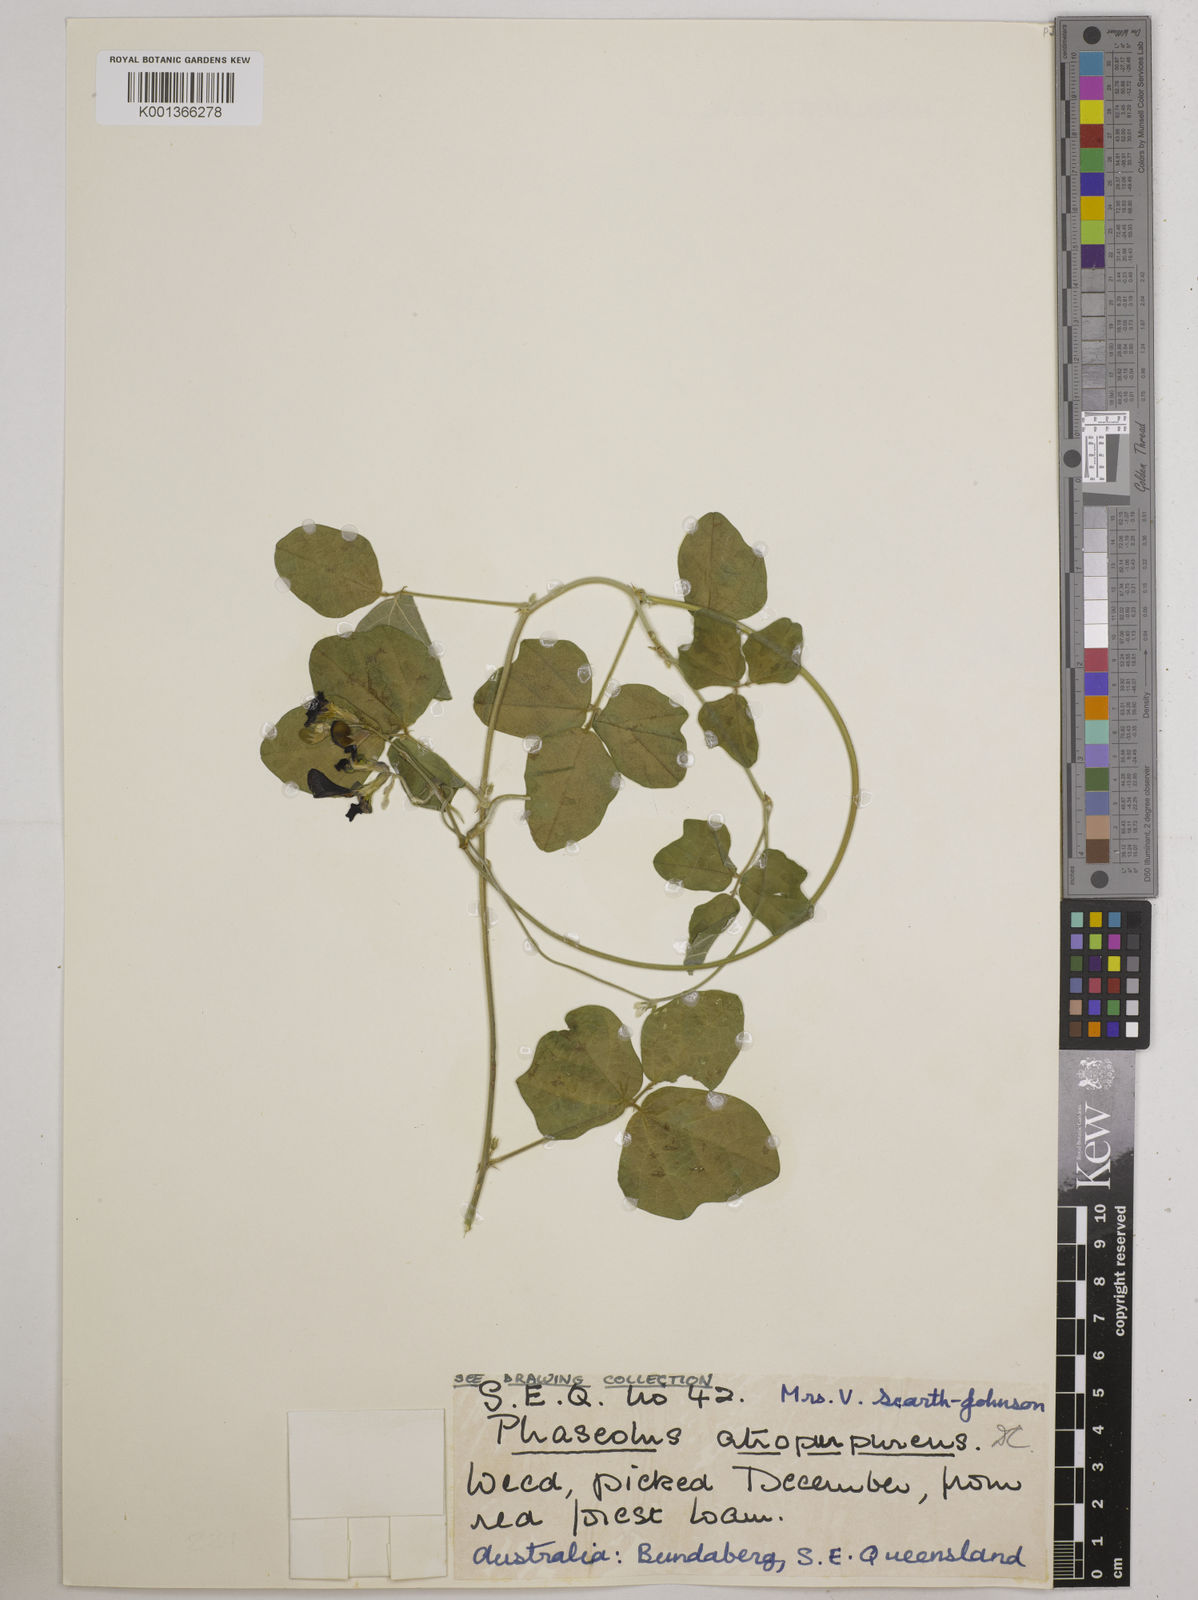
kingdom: Plantae
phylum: Tracheophyta
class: Magnoliopsida
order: Fabales
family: Fabaceae
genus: Macroptilium
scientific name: Macroptilium atropurpureum
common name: Purple bushbean
